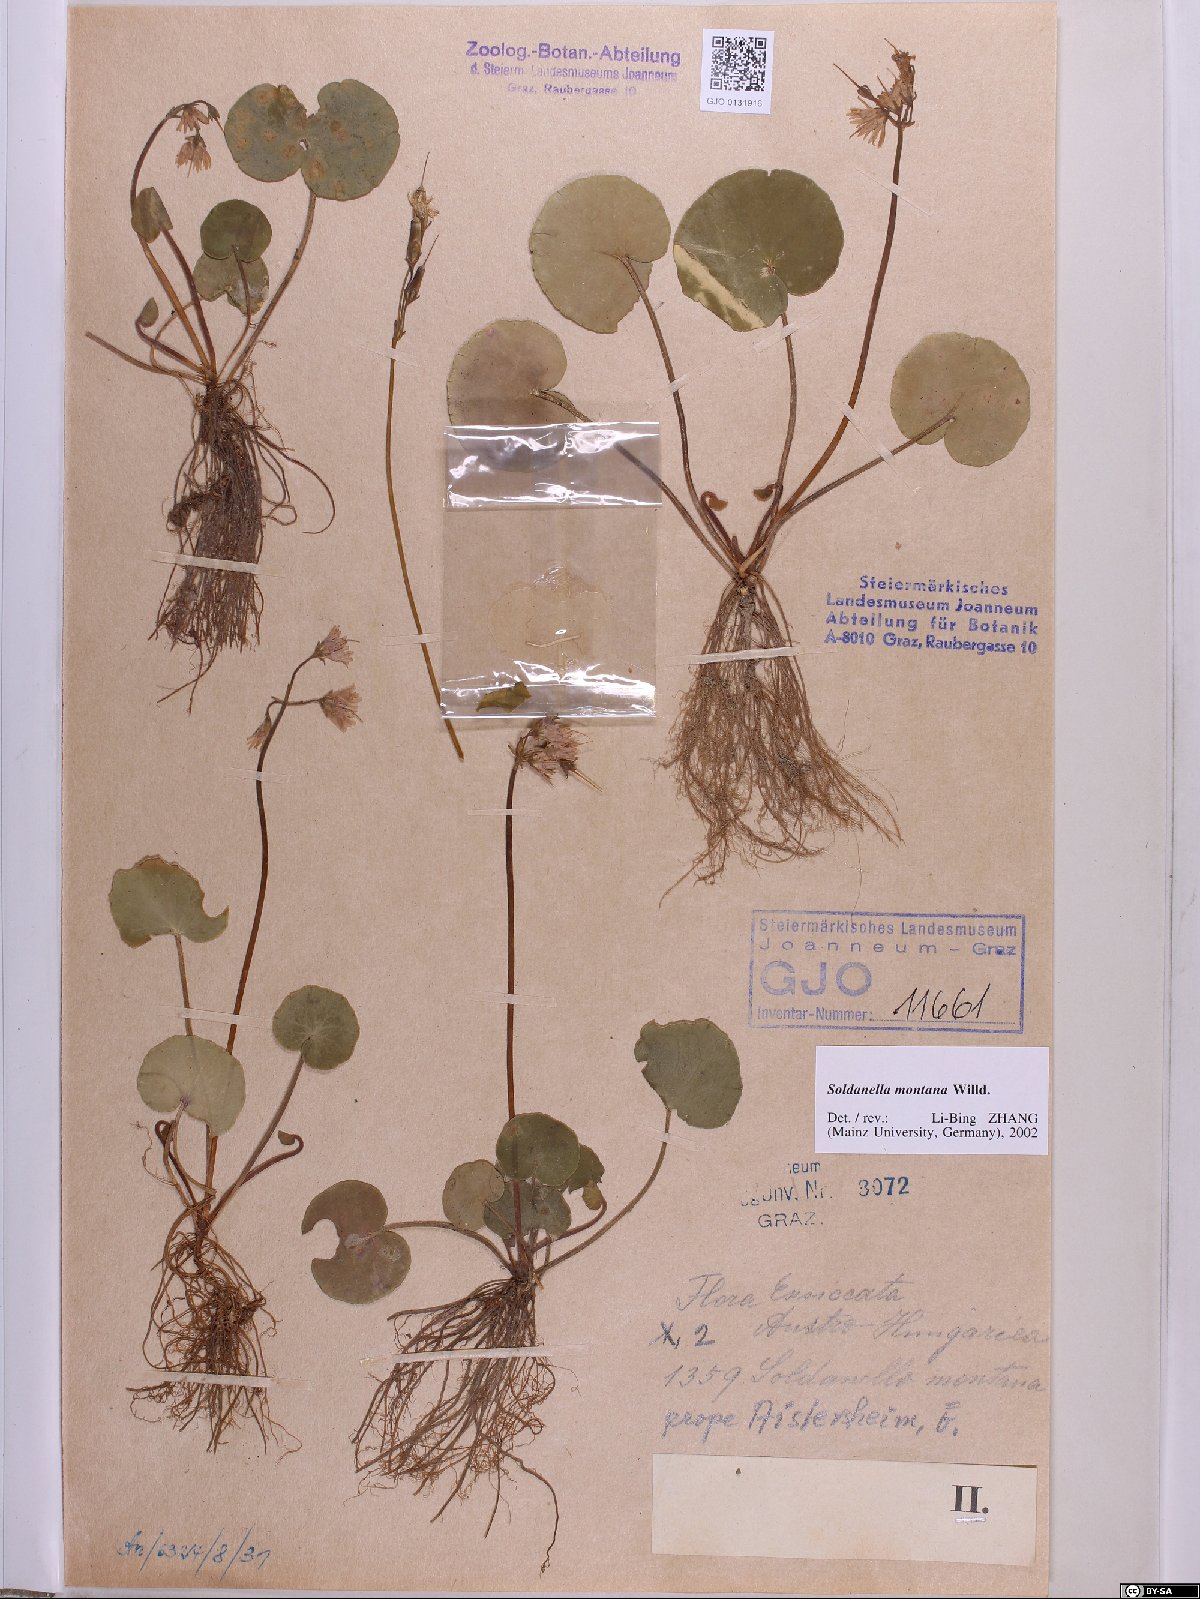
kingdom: Plantae
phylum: Tracheophyta
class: Magnoliopsida
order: Ericales
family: Primulaceae
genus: Soldanella
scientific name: Soldanella montana
